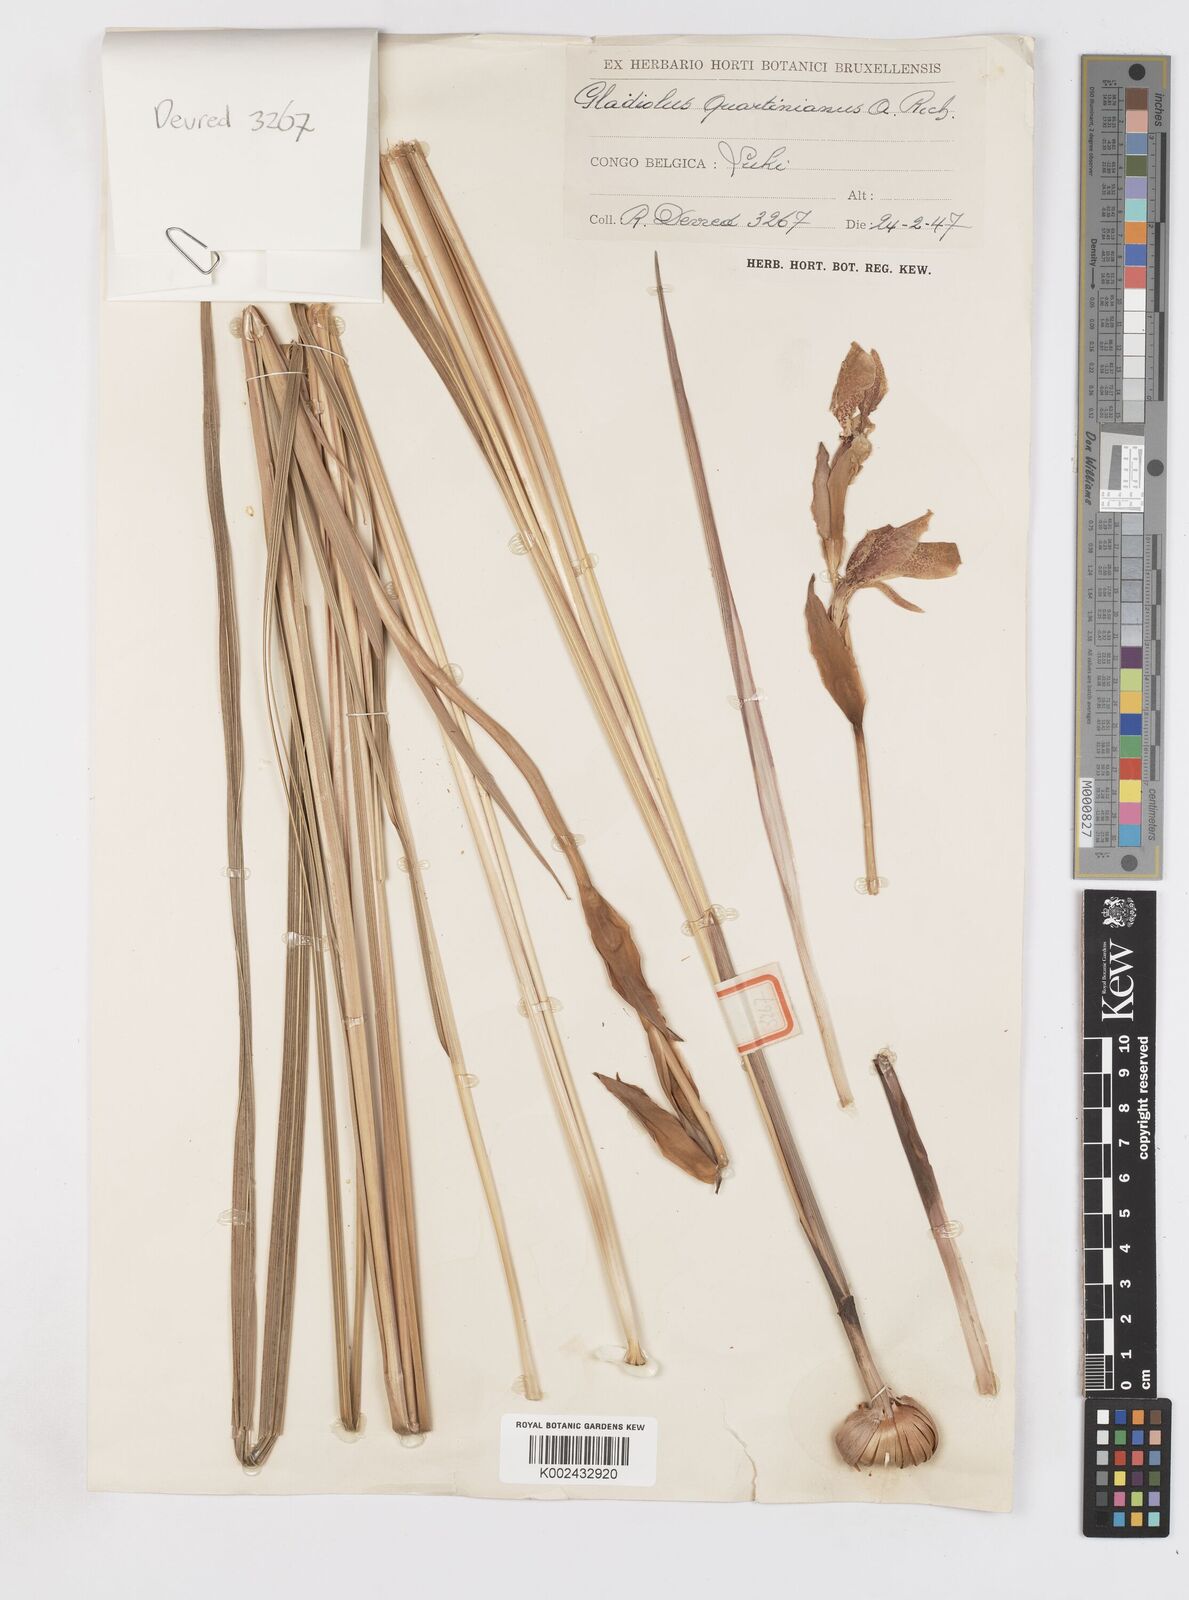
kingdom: Plantae
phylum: Tracheophyta
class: Liliopsida
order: Asparagales
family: Iridaceae
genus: Gladiolus
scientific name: Gladiolus dalenii
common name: Cornflag
